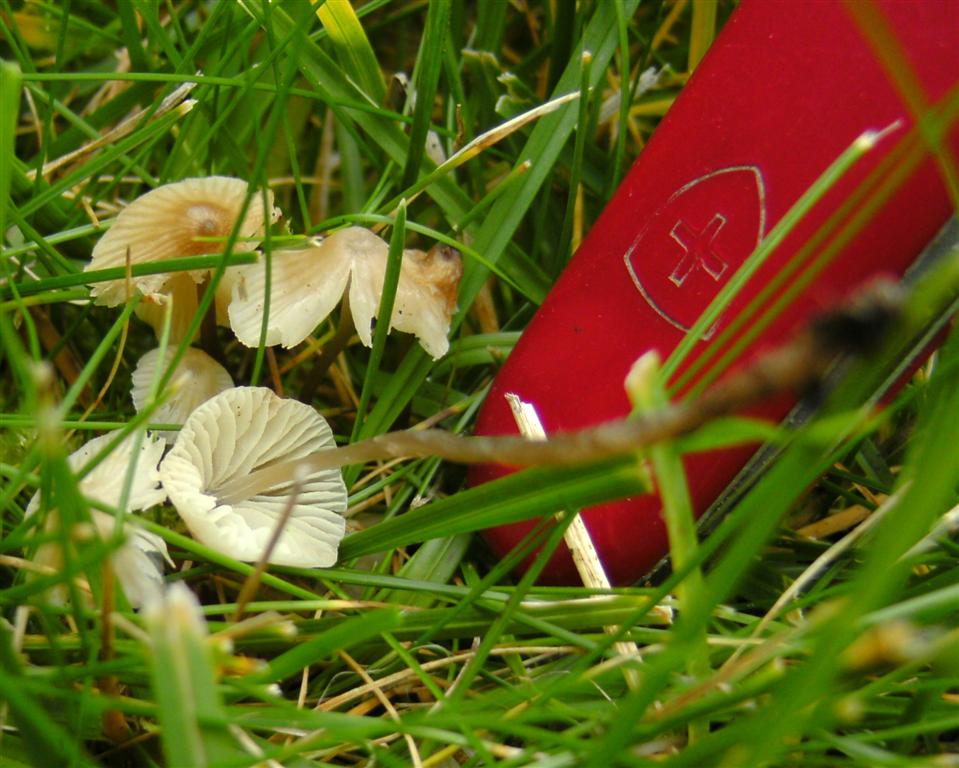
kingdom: Fungi
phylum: Basidiomycota
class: Agaricomycetes
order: Agaricales
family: Mycenaceae
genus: Mycena
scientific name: Mycena flavescens
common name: grågul huesvamp
